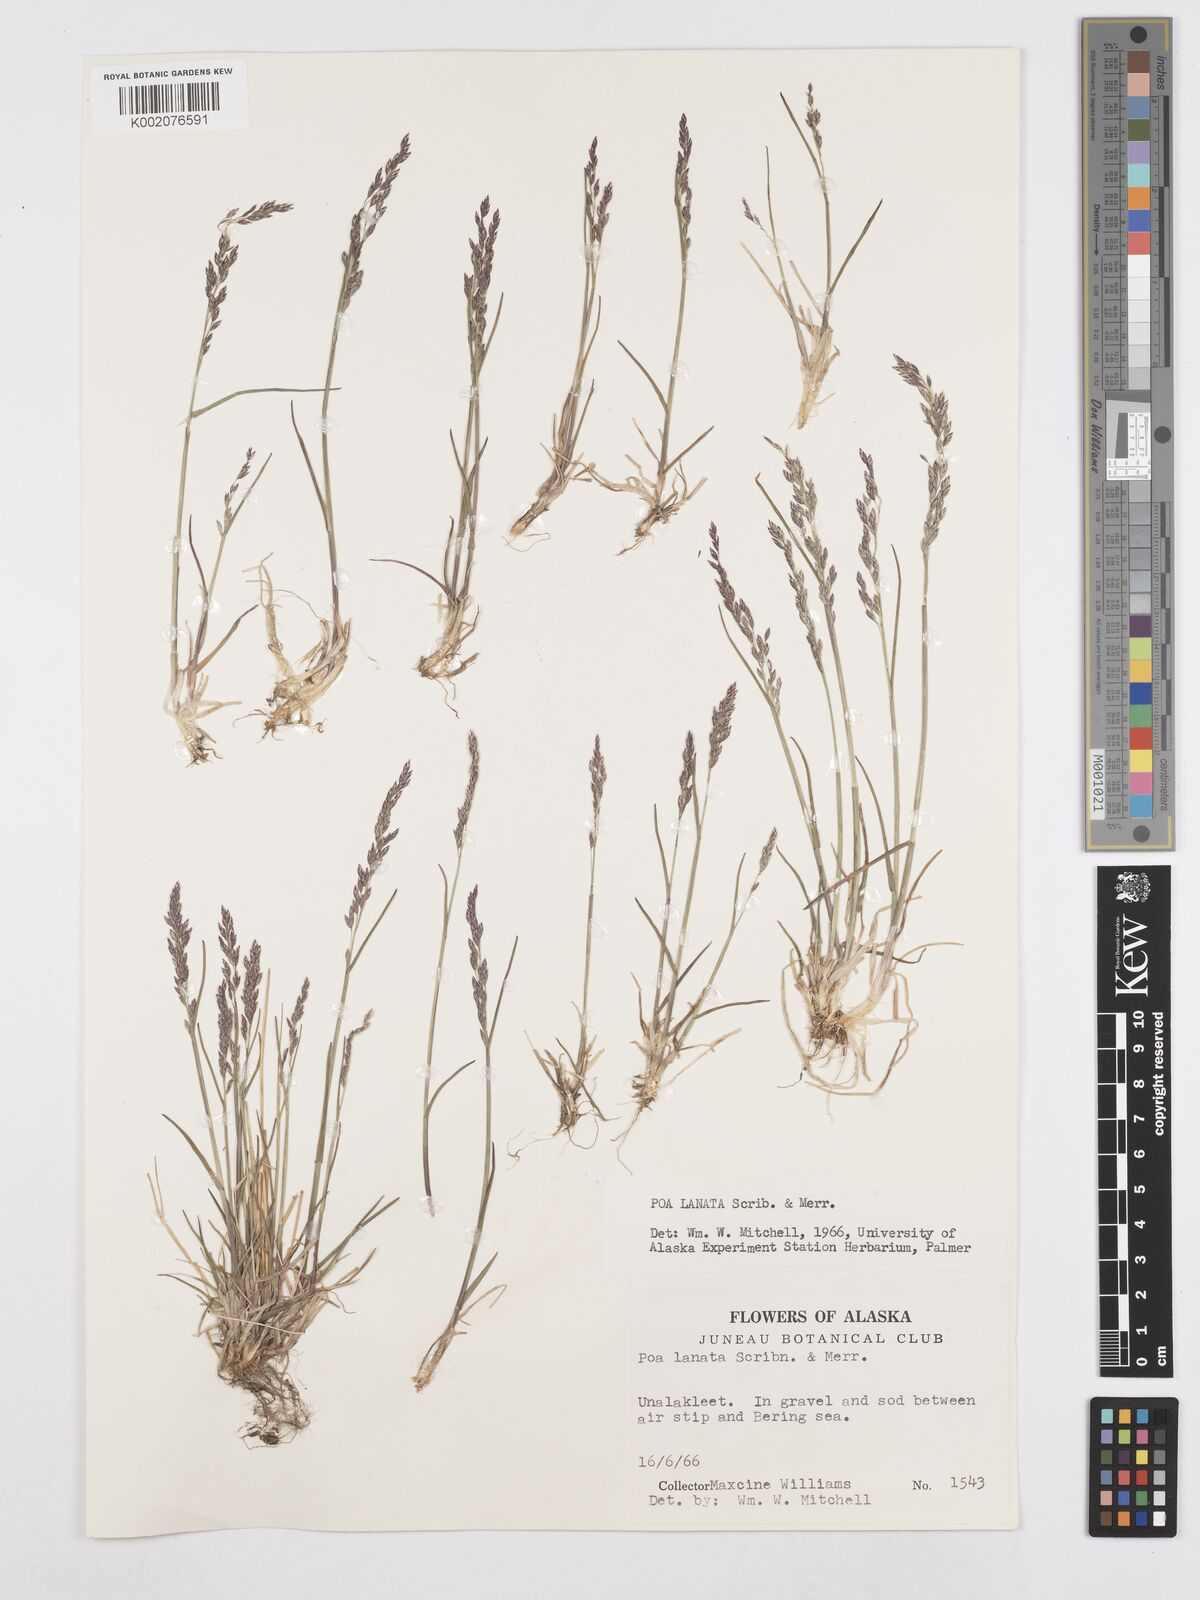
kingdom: Plantae
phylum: Tracheophyta
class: Liliopsida
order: Poales
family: Poaceae
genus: Poa
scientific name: Poa lanata
